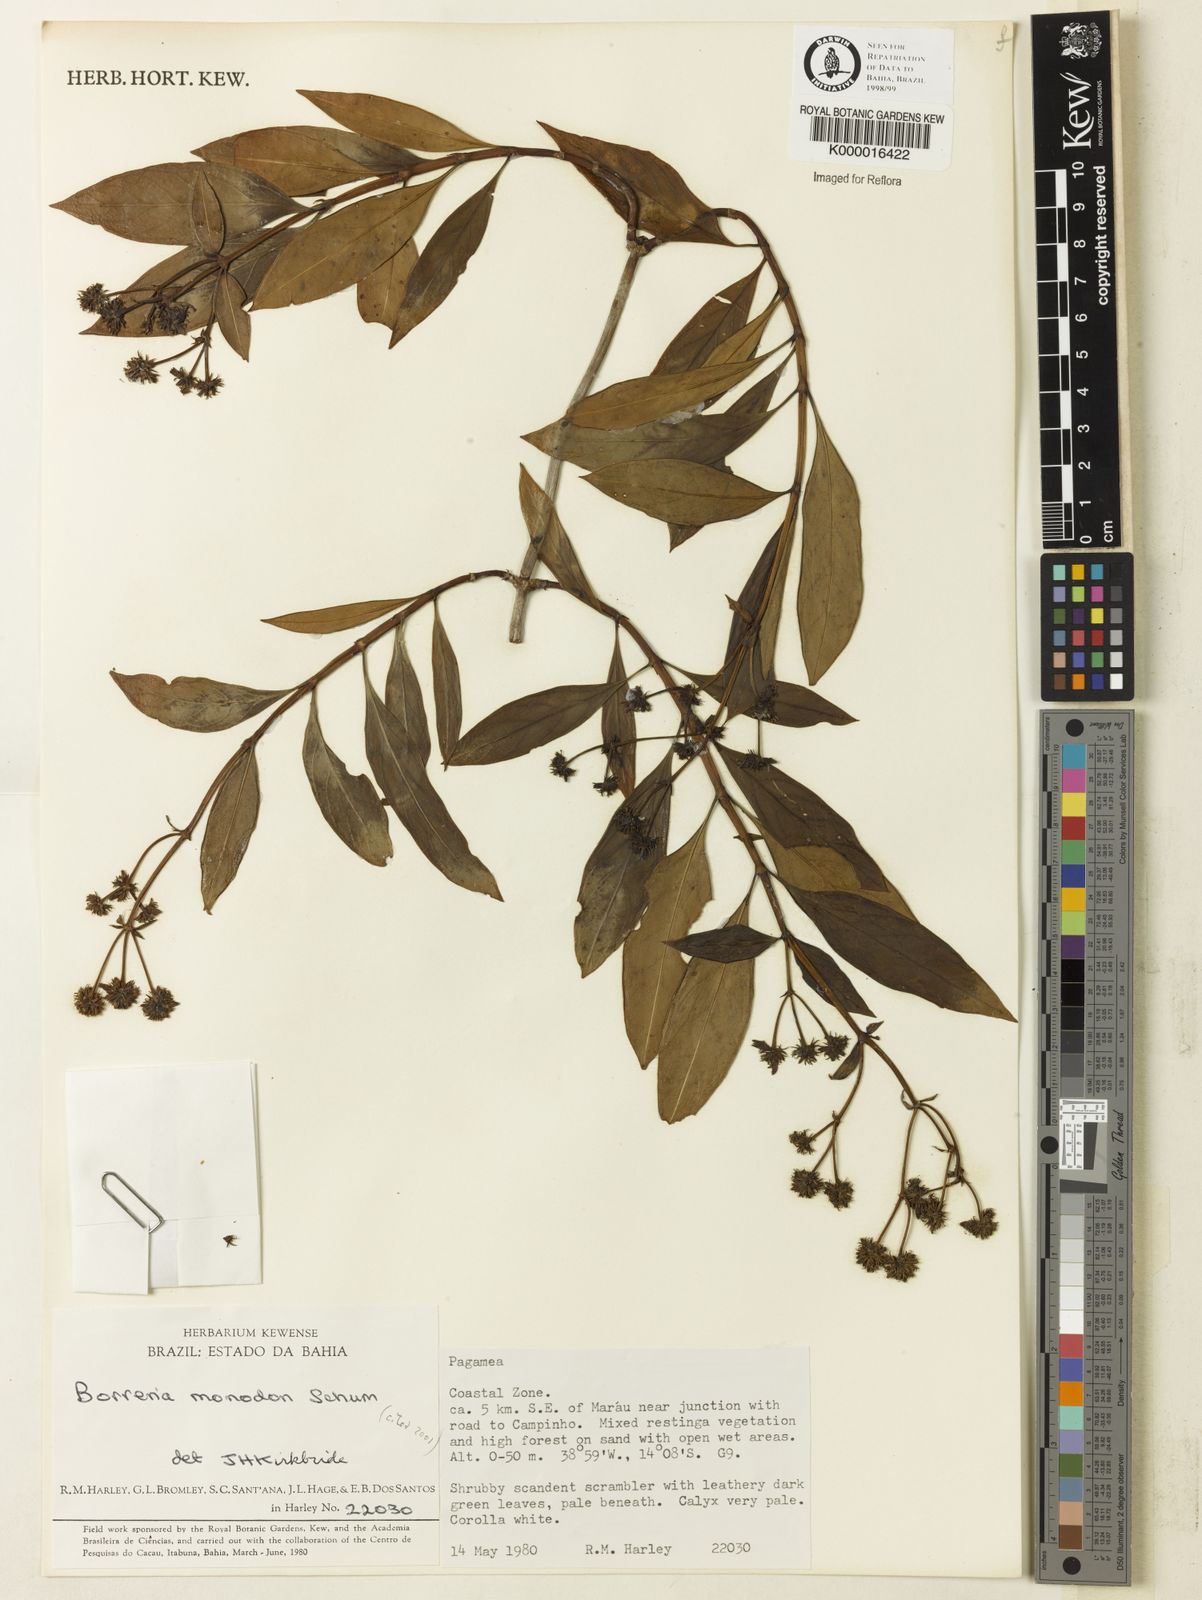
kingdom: Plantae
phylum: Tracheophyta
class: Magnoliopsida
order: Gentianales
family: Rubiaceae
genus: Denscantia
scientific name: Denscantia monodon
